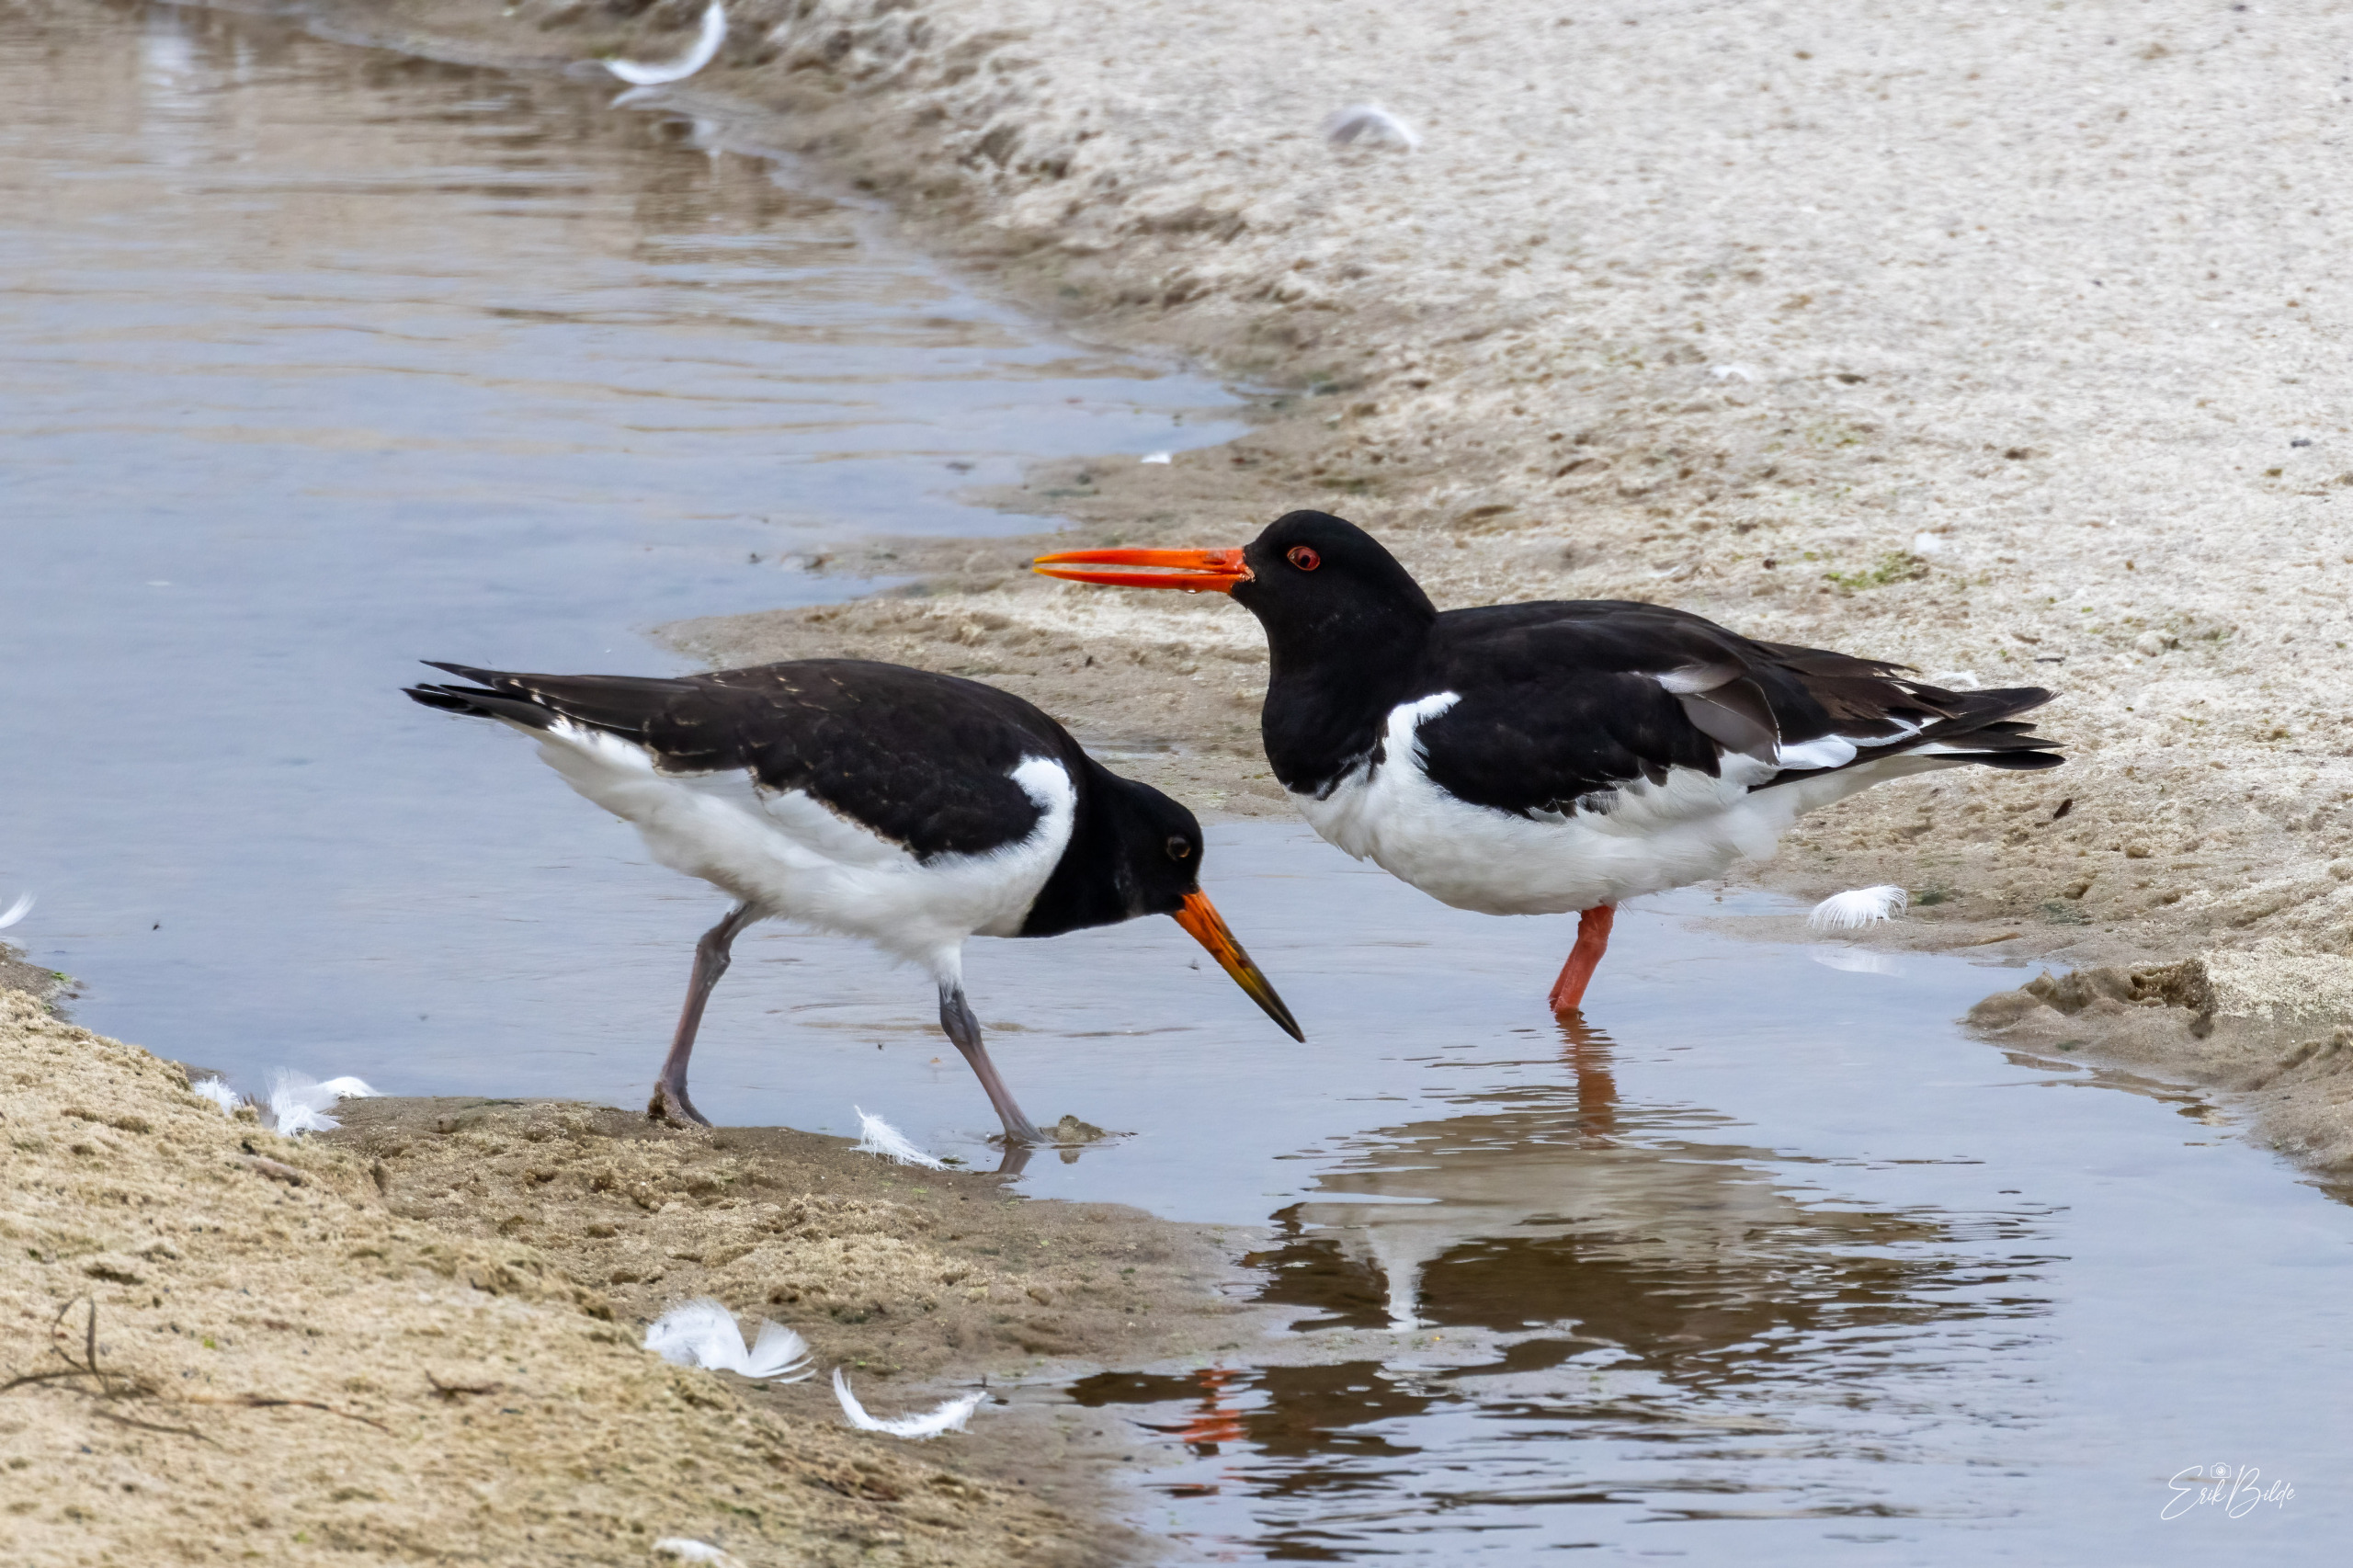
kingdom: Animalia
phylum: Chordata
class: Aves
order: Charadriiformes
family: Haematopodidae
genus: Haematopus
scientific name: Haematopus ostralegus
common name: Strandskade
